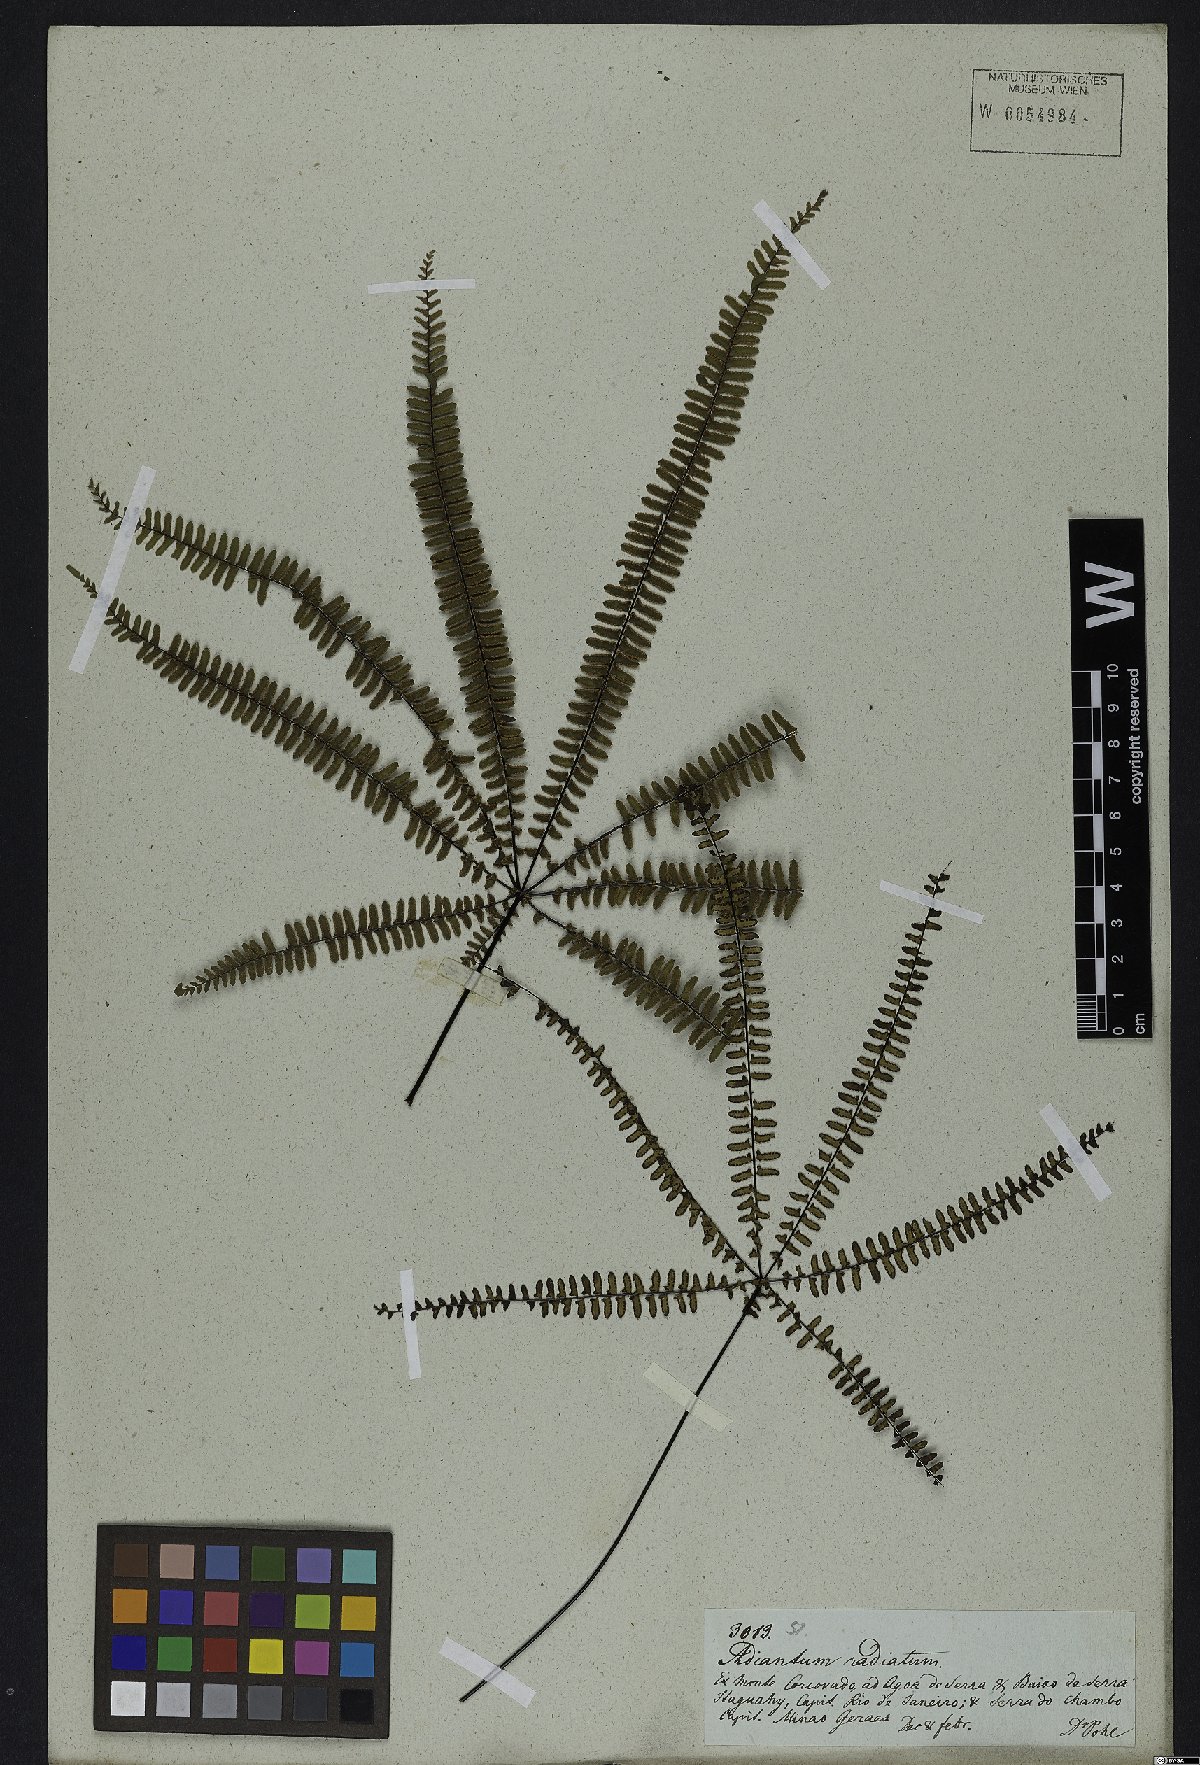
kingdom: Plantae
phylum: Tracheophyta
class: Polypodiopsida
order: Polypodiales
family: Pteridaceae
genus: Adiantopsis
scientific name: Adiantopsis radiata
